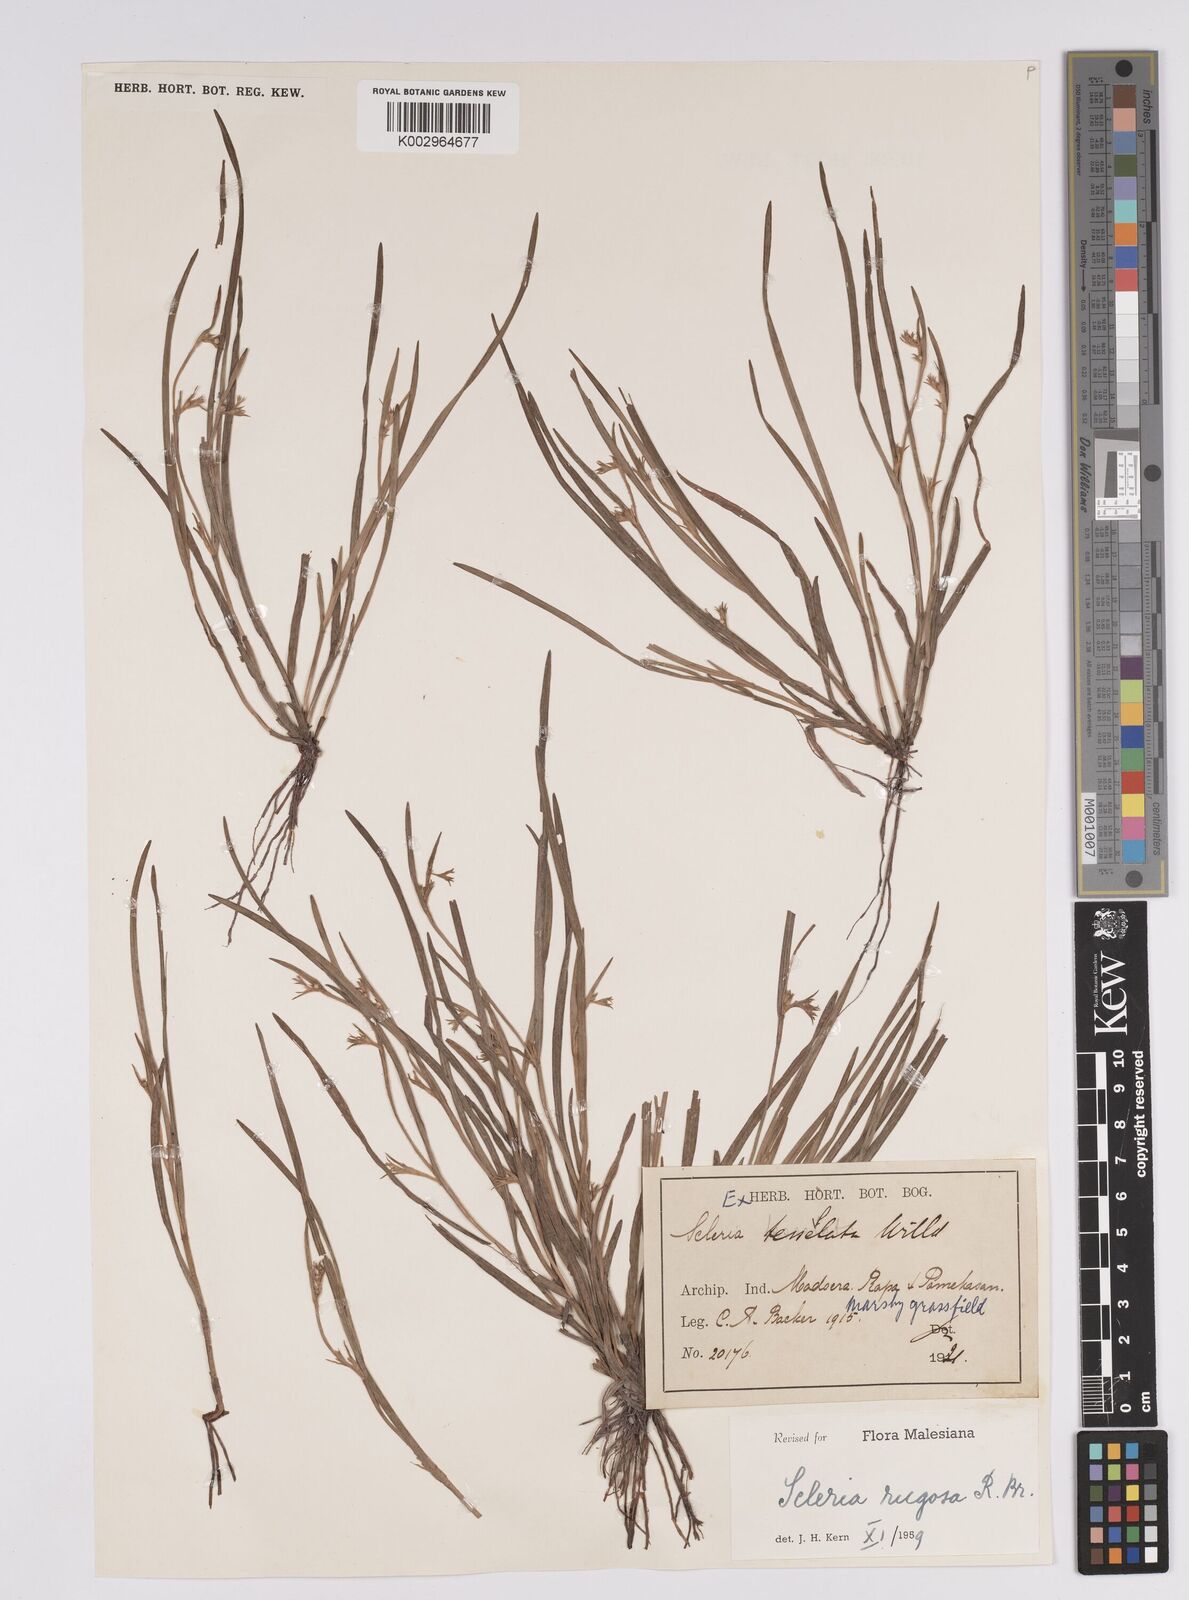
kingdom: Plantae
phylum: Tracheophyta
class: Liliopsida
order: Poales
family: Cyperaceae
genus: Scleria
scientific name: Scleria rugosa
